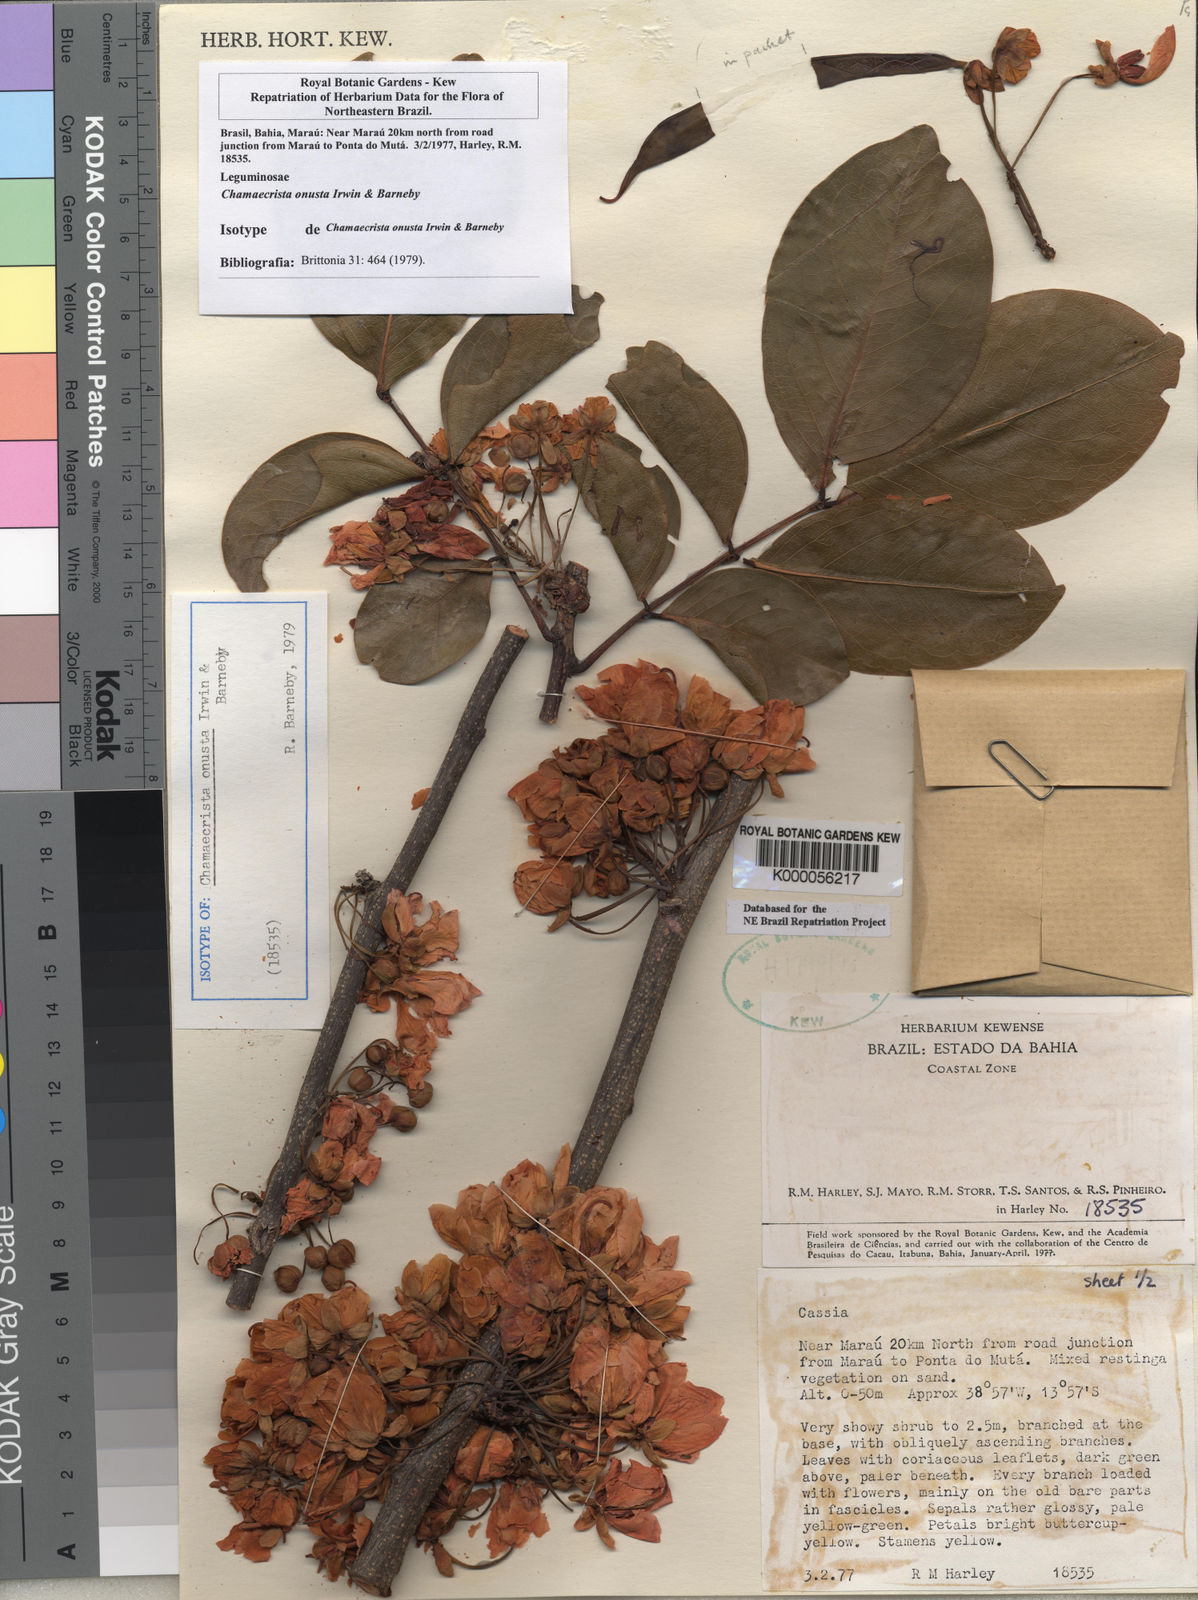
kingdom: Plantae
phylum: Tracheophyta
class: Magnoliopsida
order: Fabales
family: Fabaceae
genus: Chamaecrista
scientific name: Chamaecrista onusta
